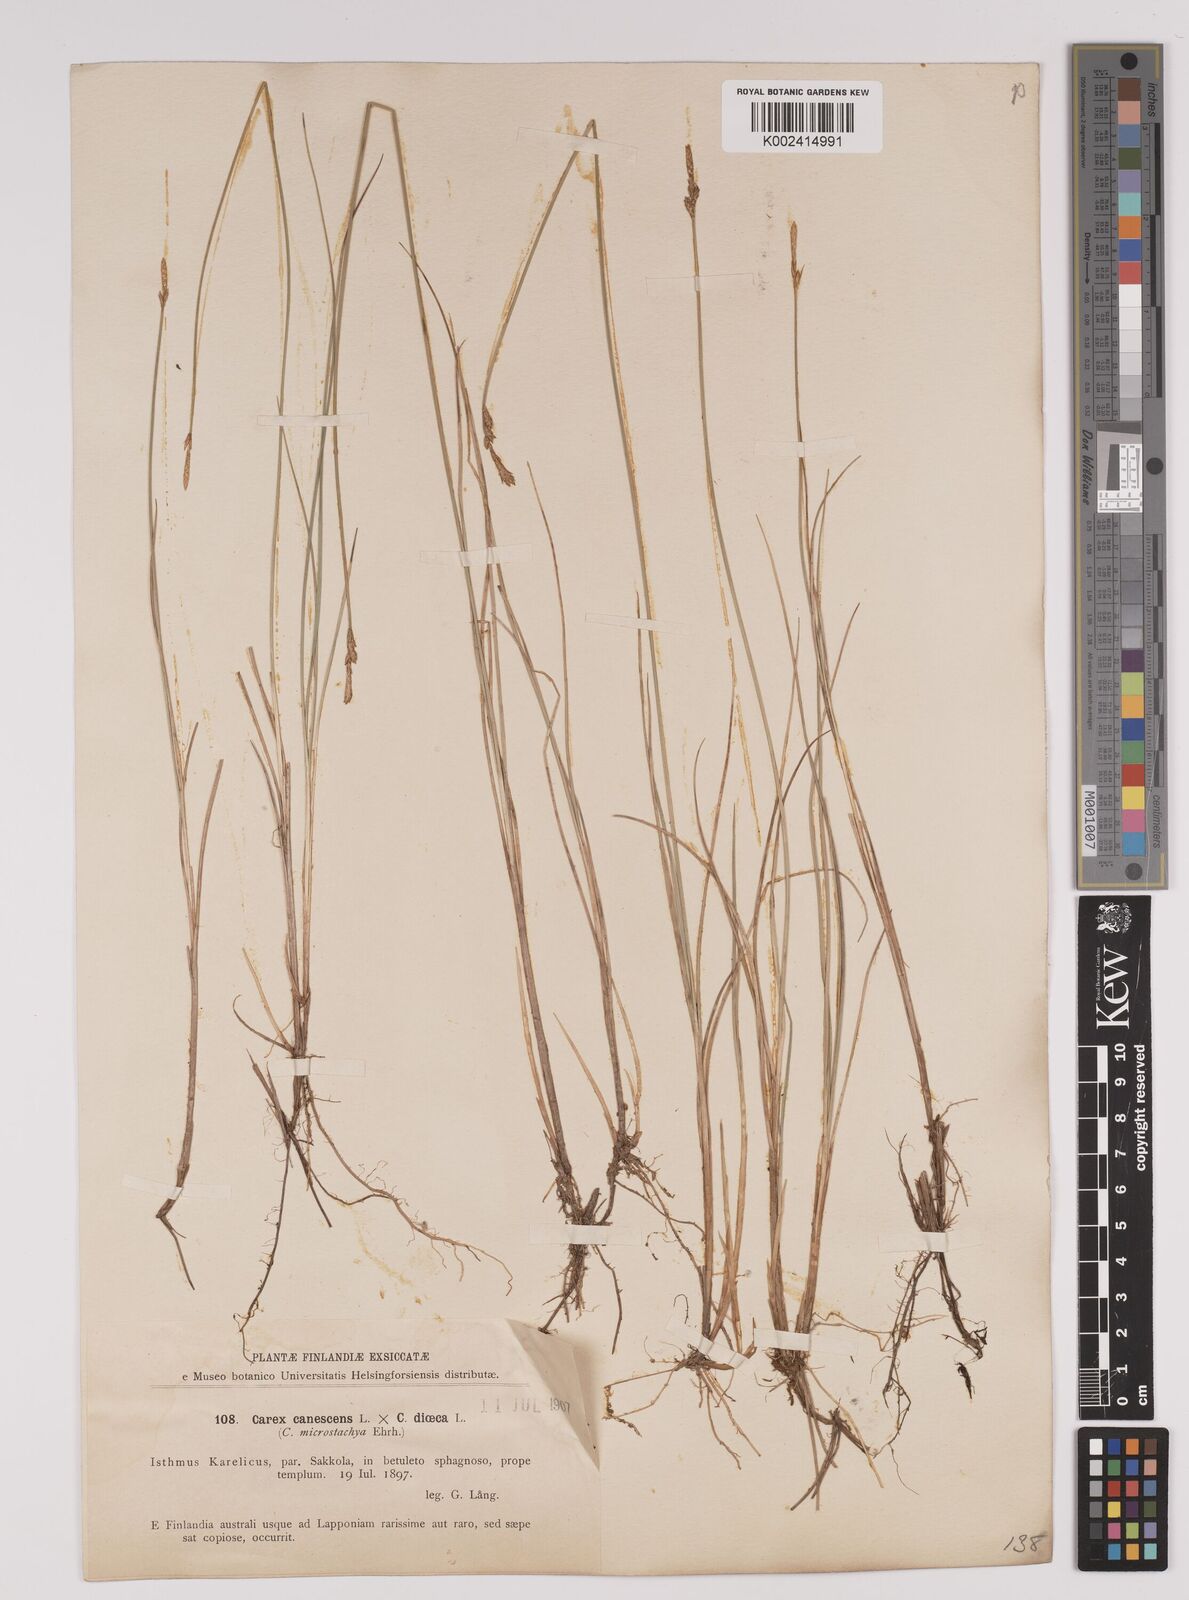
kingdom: Plantae
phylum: Tracheophyta
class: Liliopsida
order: Poales
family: Cyperaceae
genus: Carex
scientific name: Carex dioica
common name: Dioecious sedge
